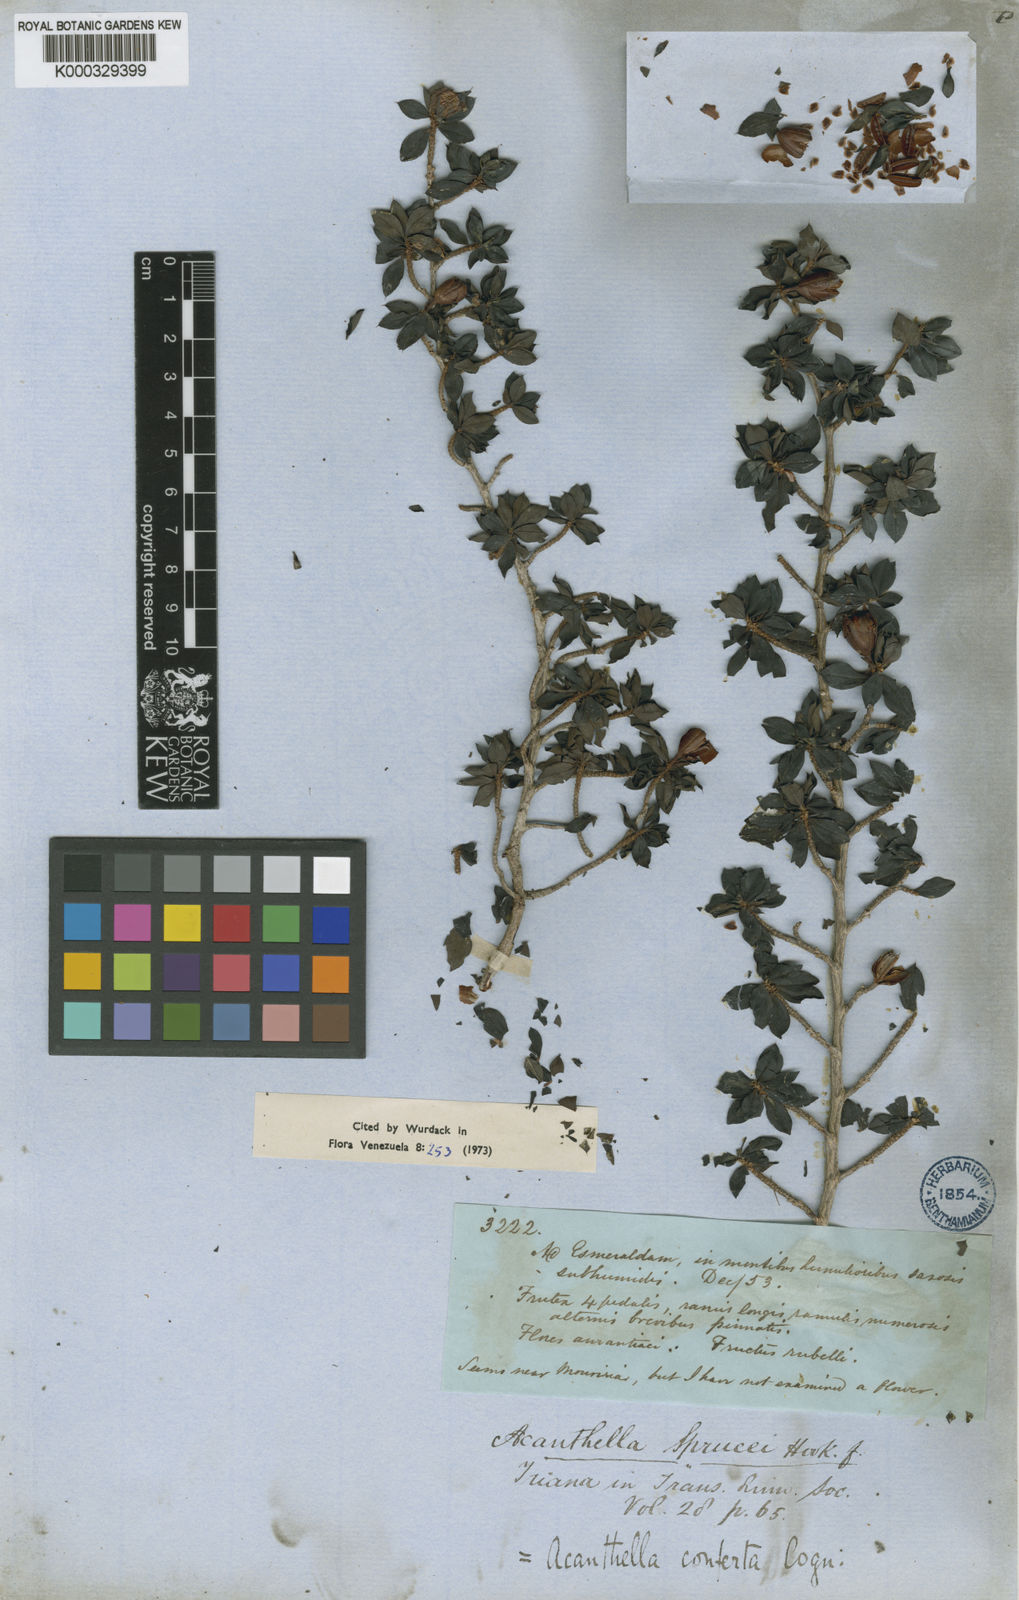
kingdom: Plantae
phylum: Tracheophyta
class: Magnoliopsida
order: Myrtales
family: Melastomataceae
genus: Acanthella
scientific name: Acanthella sprucei
